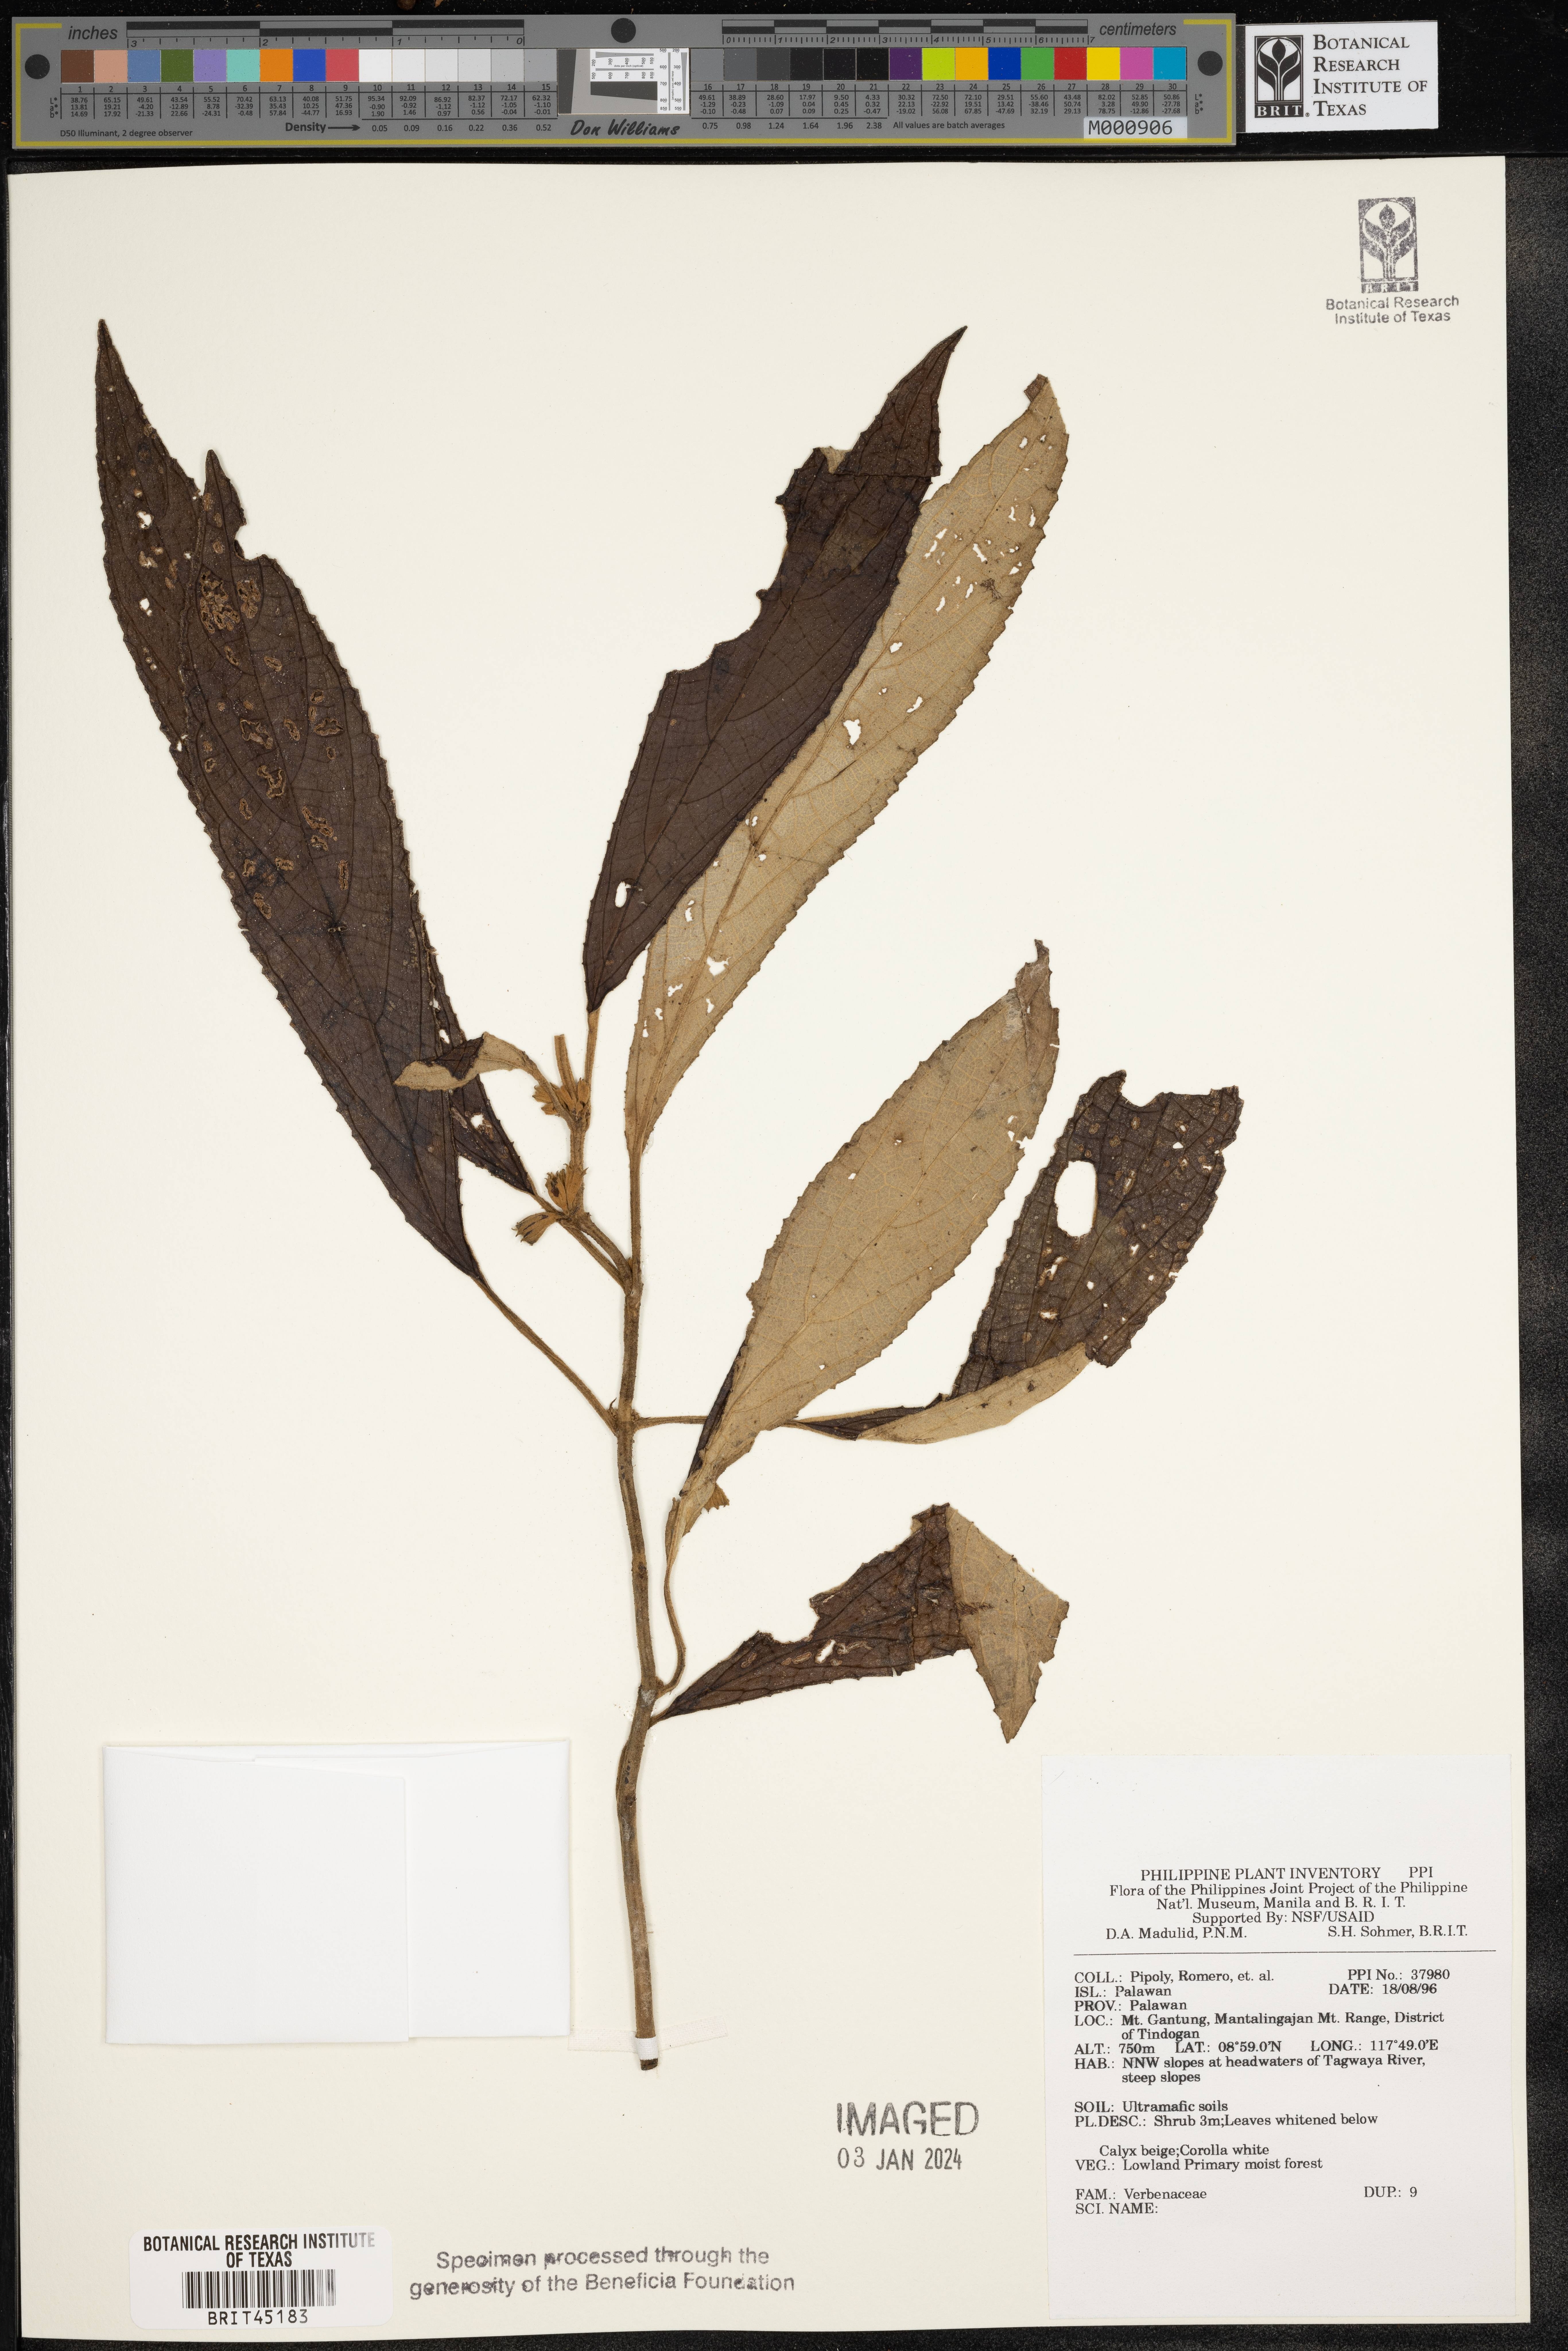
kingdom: Plantae
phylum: Tracheophyta
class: Magnoliopsida
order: Lamiales
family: Verbenaceae
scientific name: Verbenaceae
